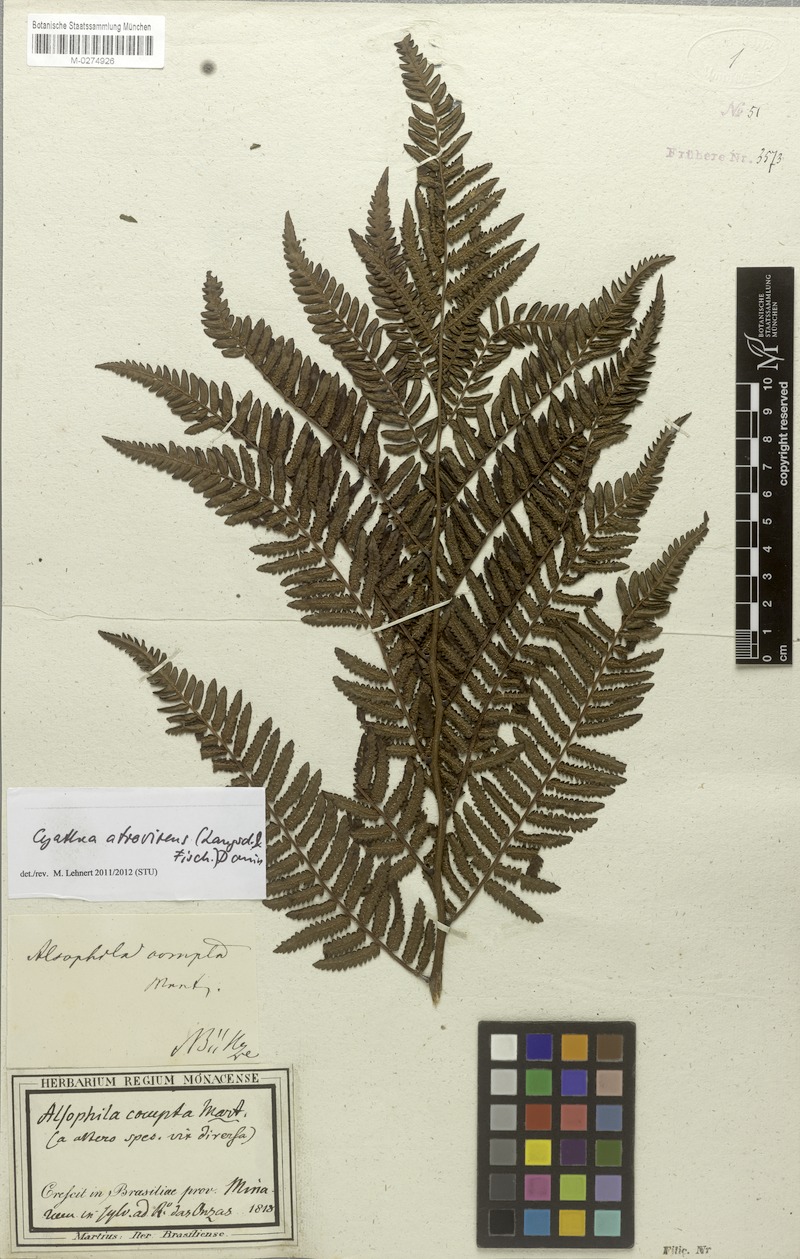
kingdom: Plantae
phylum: Tracheophyta
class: Polypodiopsida
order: Cyatheales
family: Cyatheaceae
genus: Cyathea
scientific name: Cyathea atrovirens
